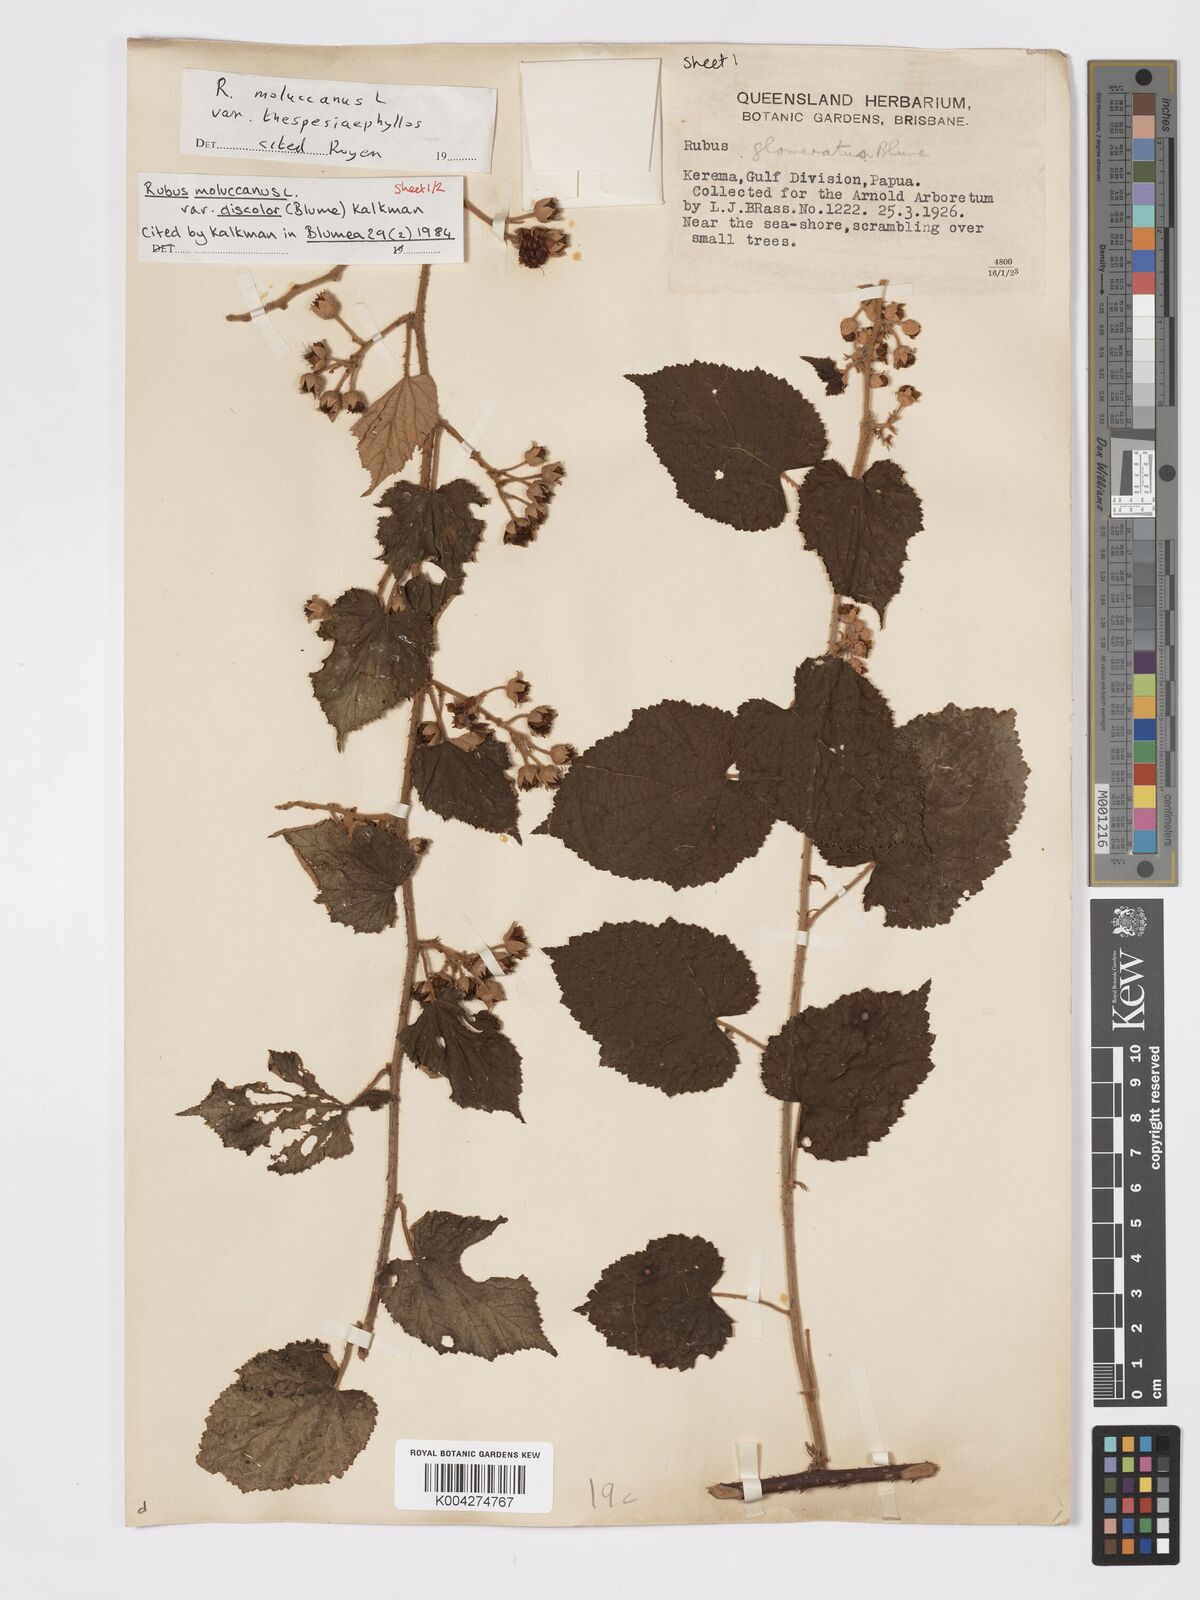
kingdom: Plantae
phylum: Tracheophyta
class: Magnoliopsida
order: Rosales
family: Rosaceae
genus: Rubus
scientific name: Rubus moluccanus
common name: Wild raspberry
